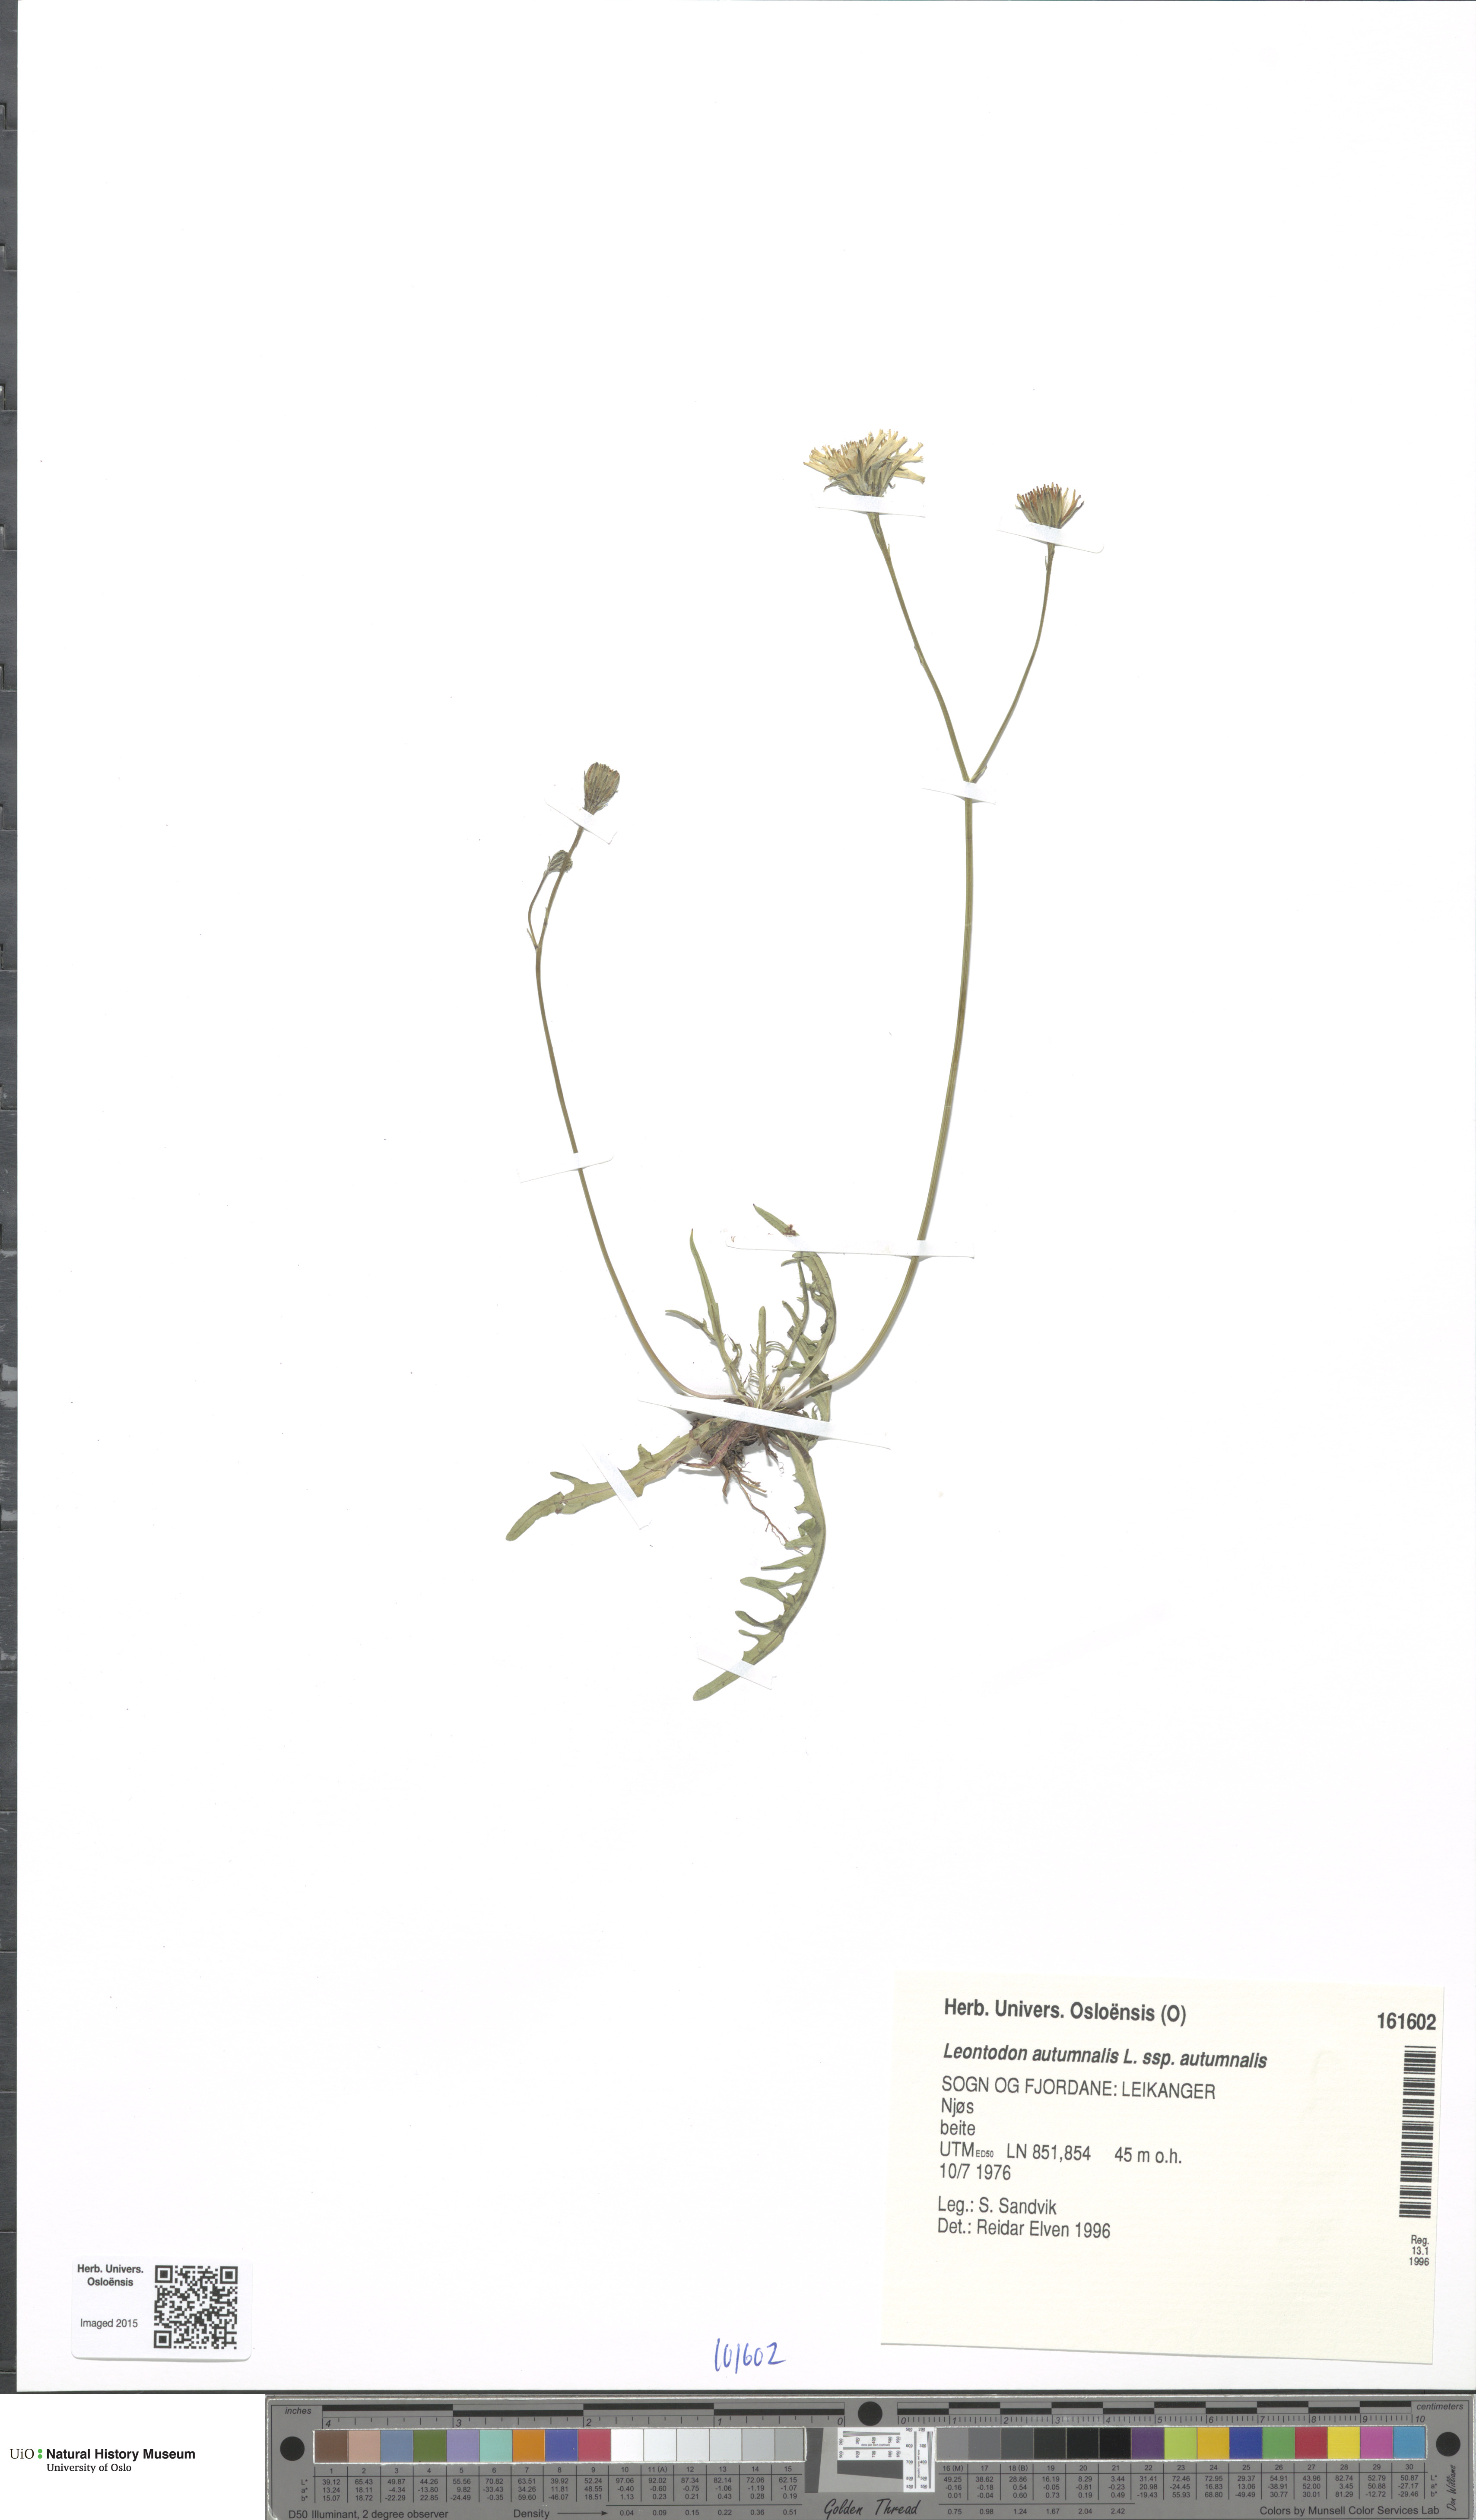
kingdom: Plantae
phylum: Tracheophyta
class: Magnoliopsida
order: Asterales
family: Asteraceae
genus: Scorzoneroides
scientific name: Scorzoneroides autumnalis
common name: Autumn hawkbit
